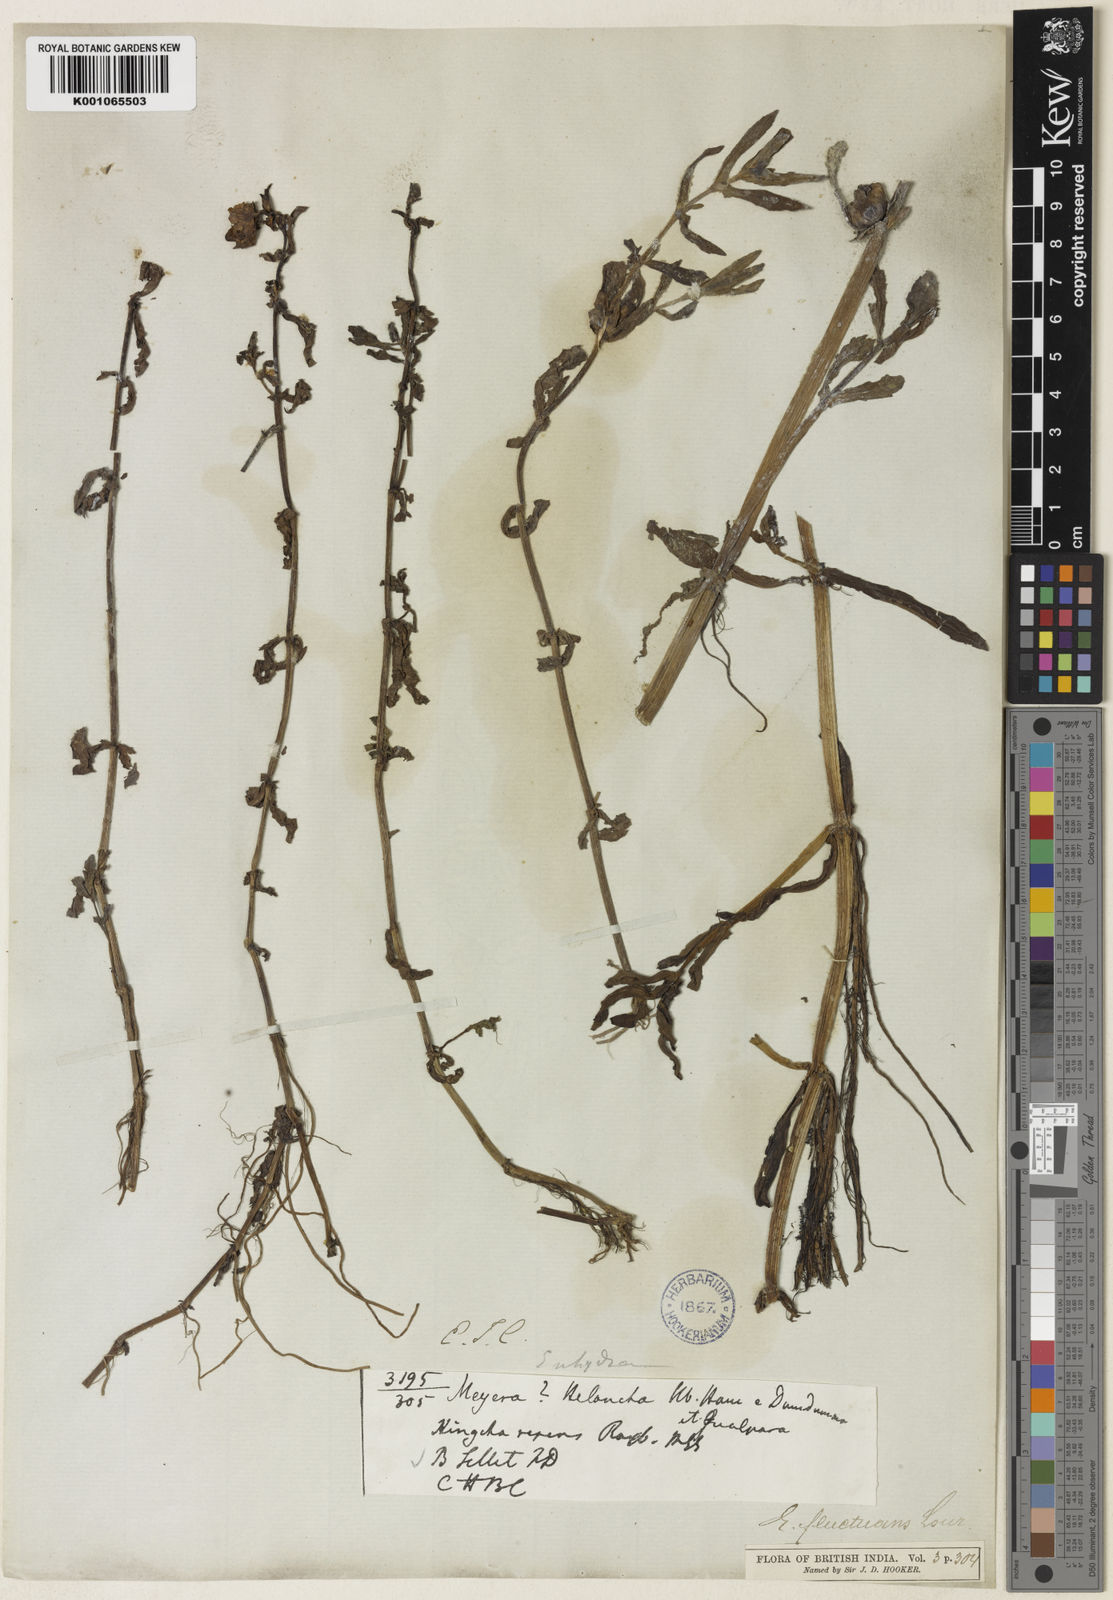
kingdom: Plantae
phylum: Tracheophyta
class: Magnoliopsida
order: Asterales
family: Asteraceae
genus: Enydra
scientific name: Enydra fluctuans
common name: Buffalo spinach
